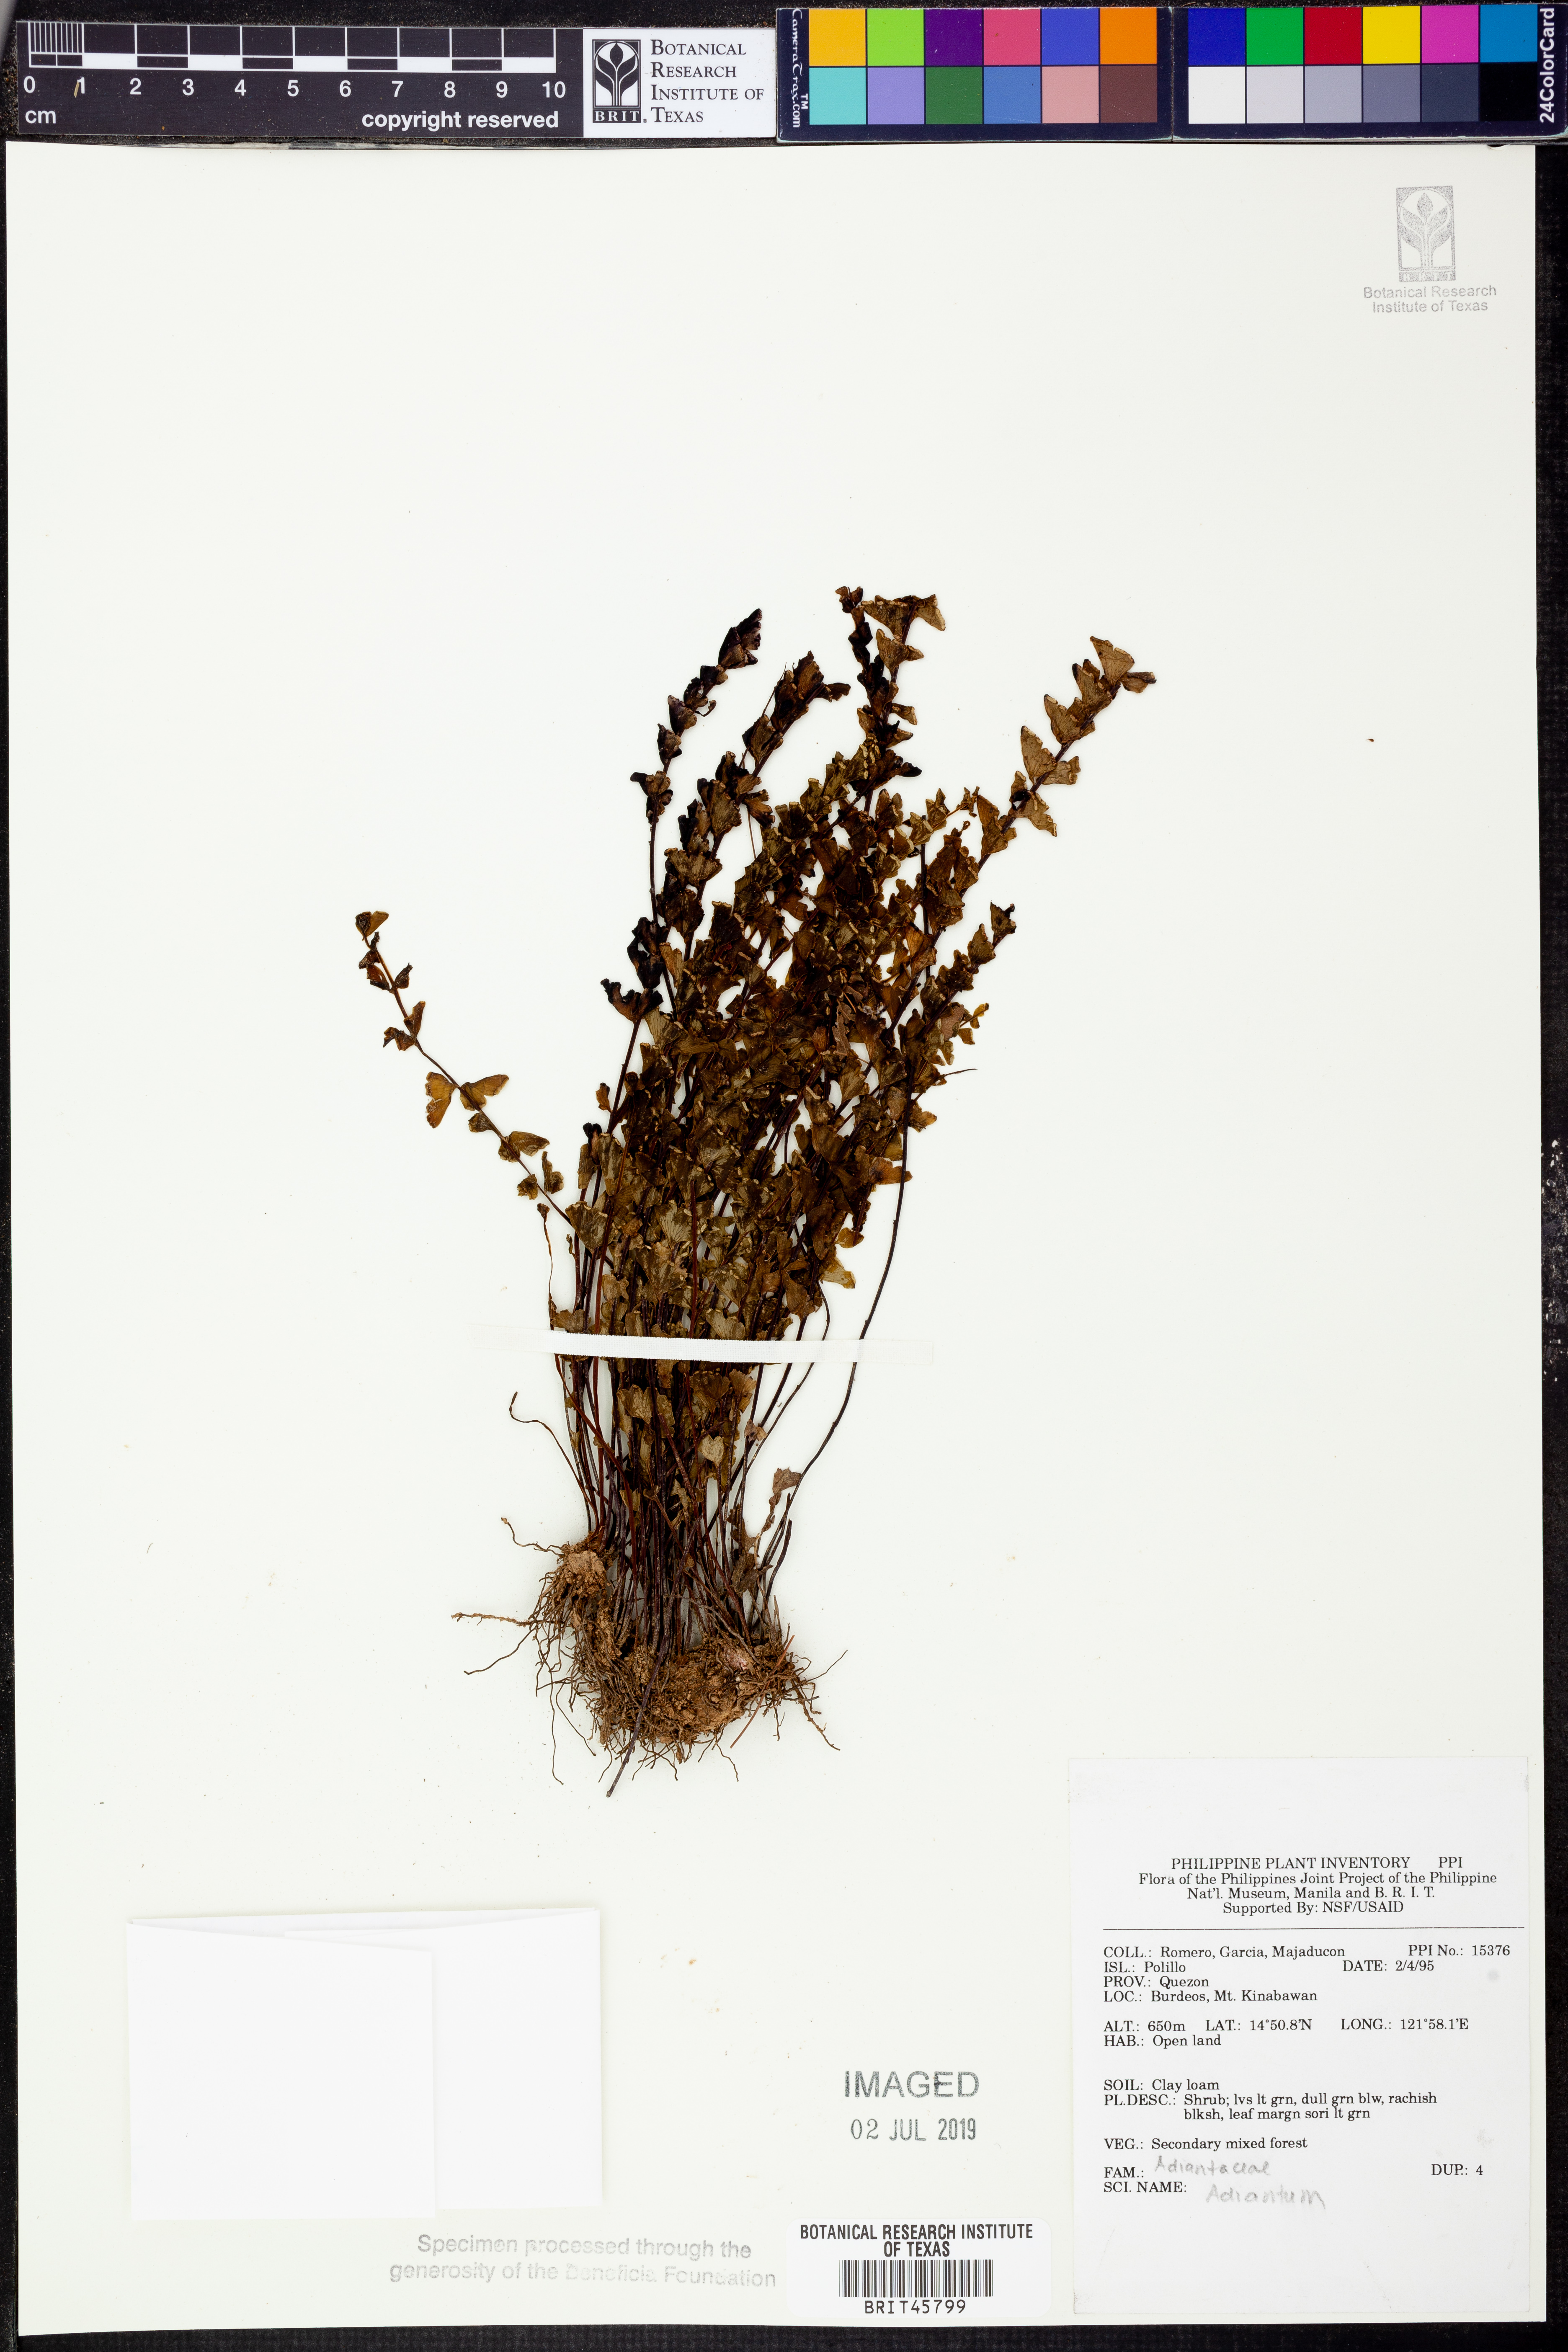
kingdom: Plantae
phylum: Tracheophyta
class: Polypodiopsida
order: Polypodiales
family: Pteridaceae
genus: Adiantum
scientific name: Adiantum
